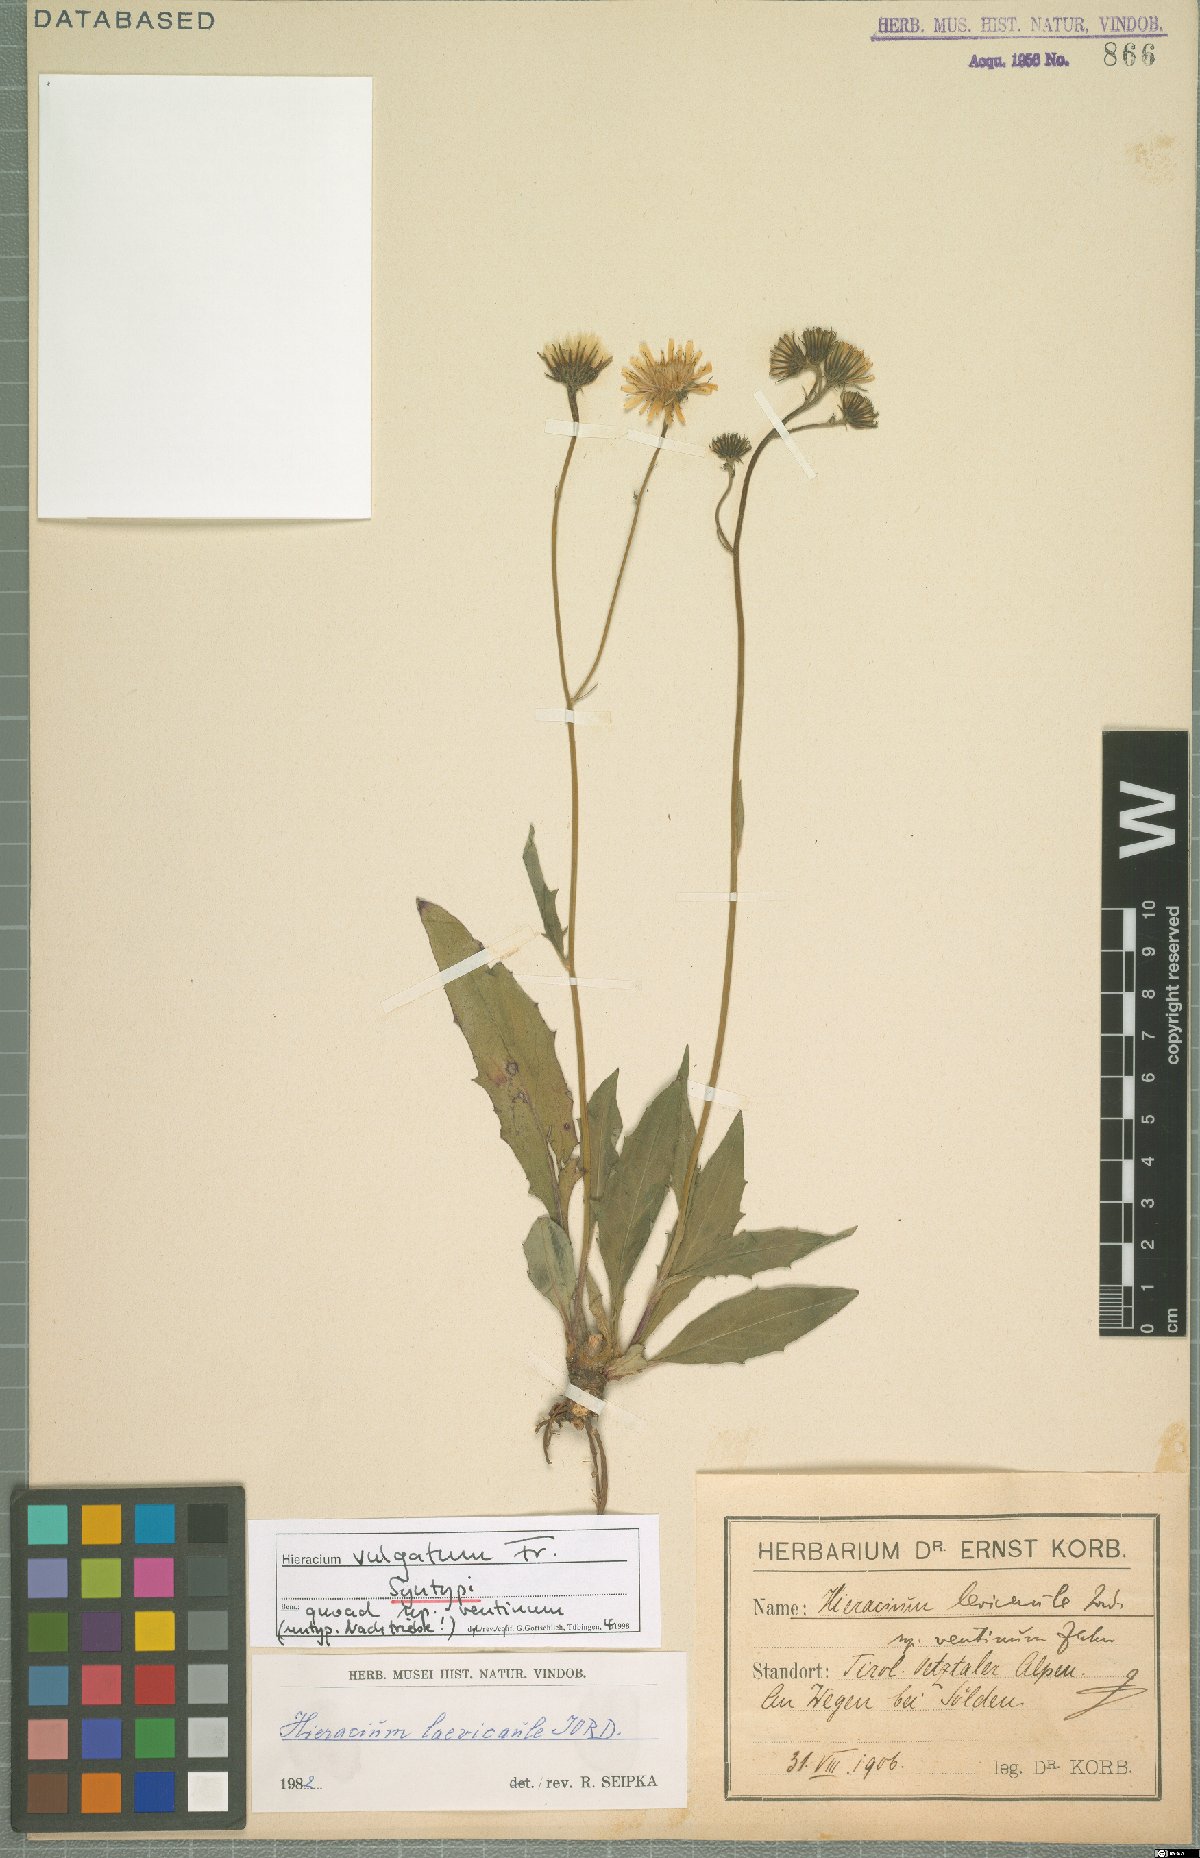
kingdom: Plantae
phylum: Tracheophyta
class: Magnoliopsida
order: Asterales
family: Asteraceae
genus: Hieracium
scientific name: Hieracium lachenalii
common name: Common hawkweed
